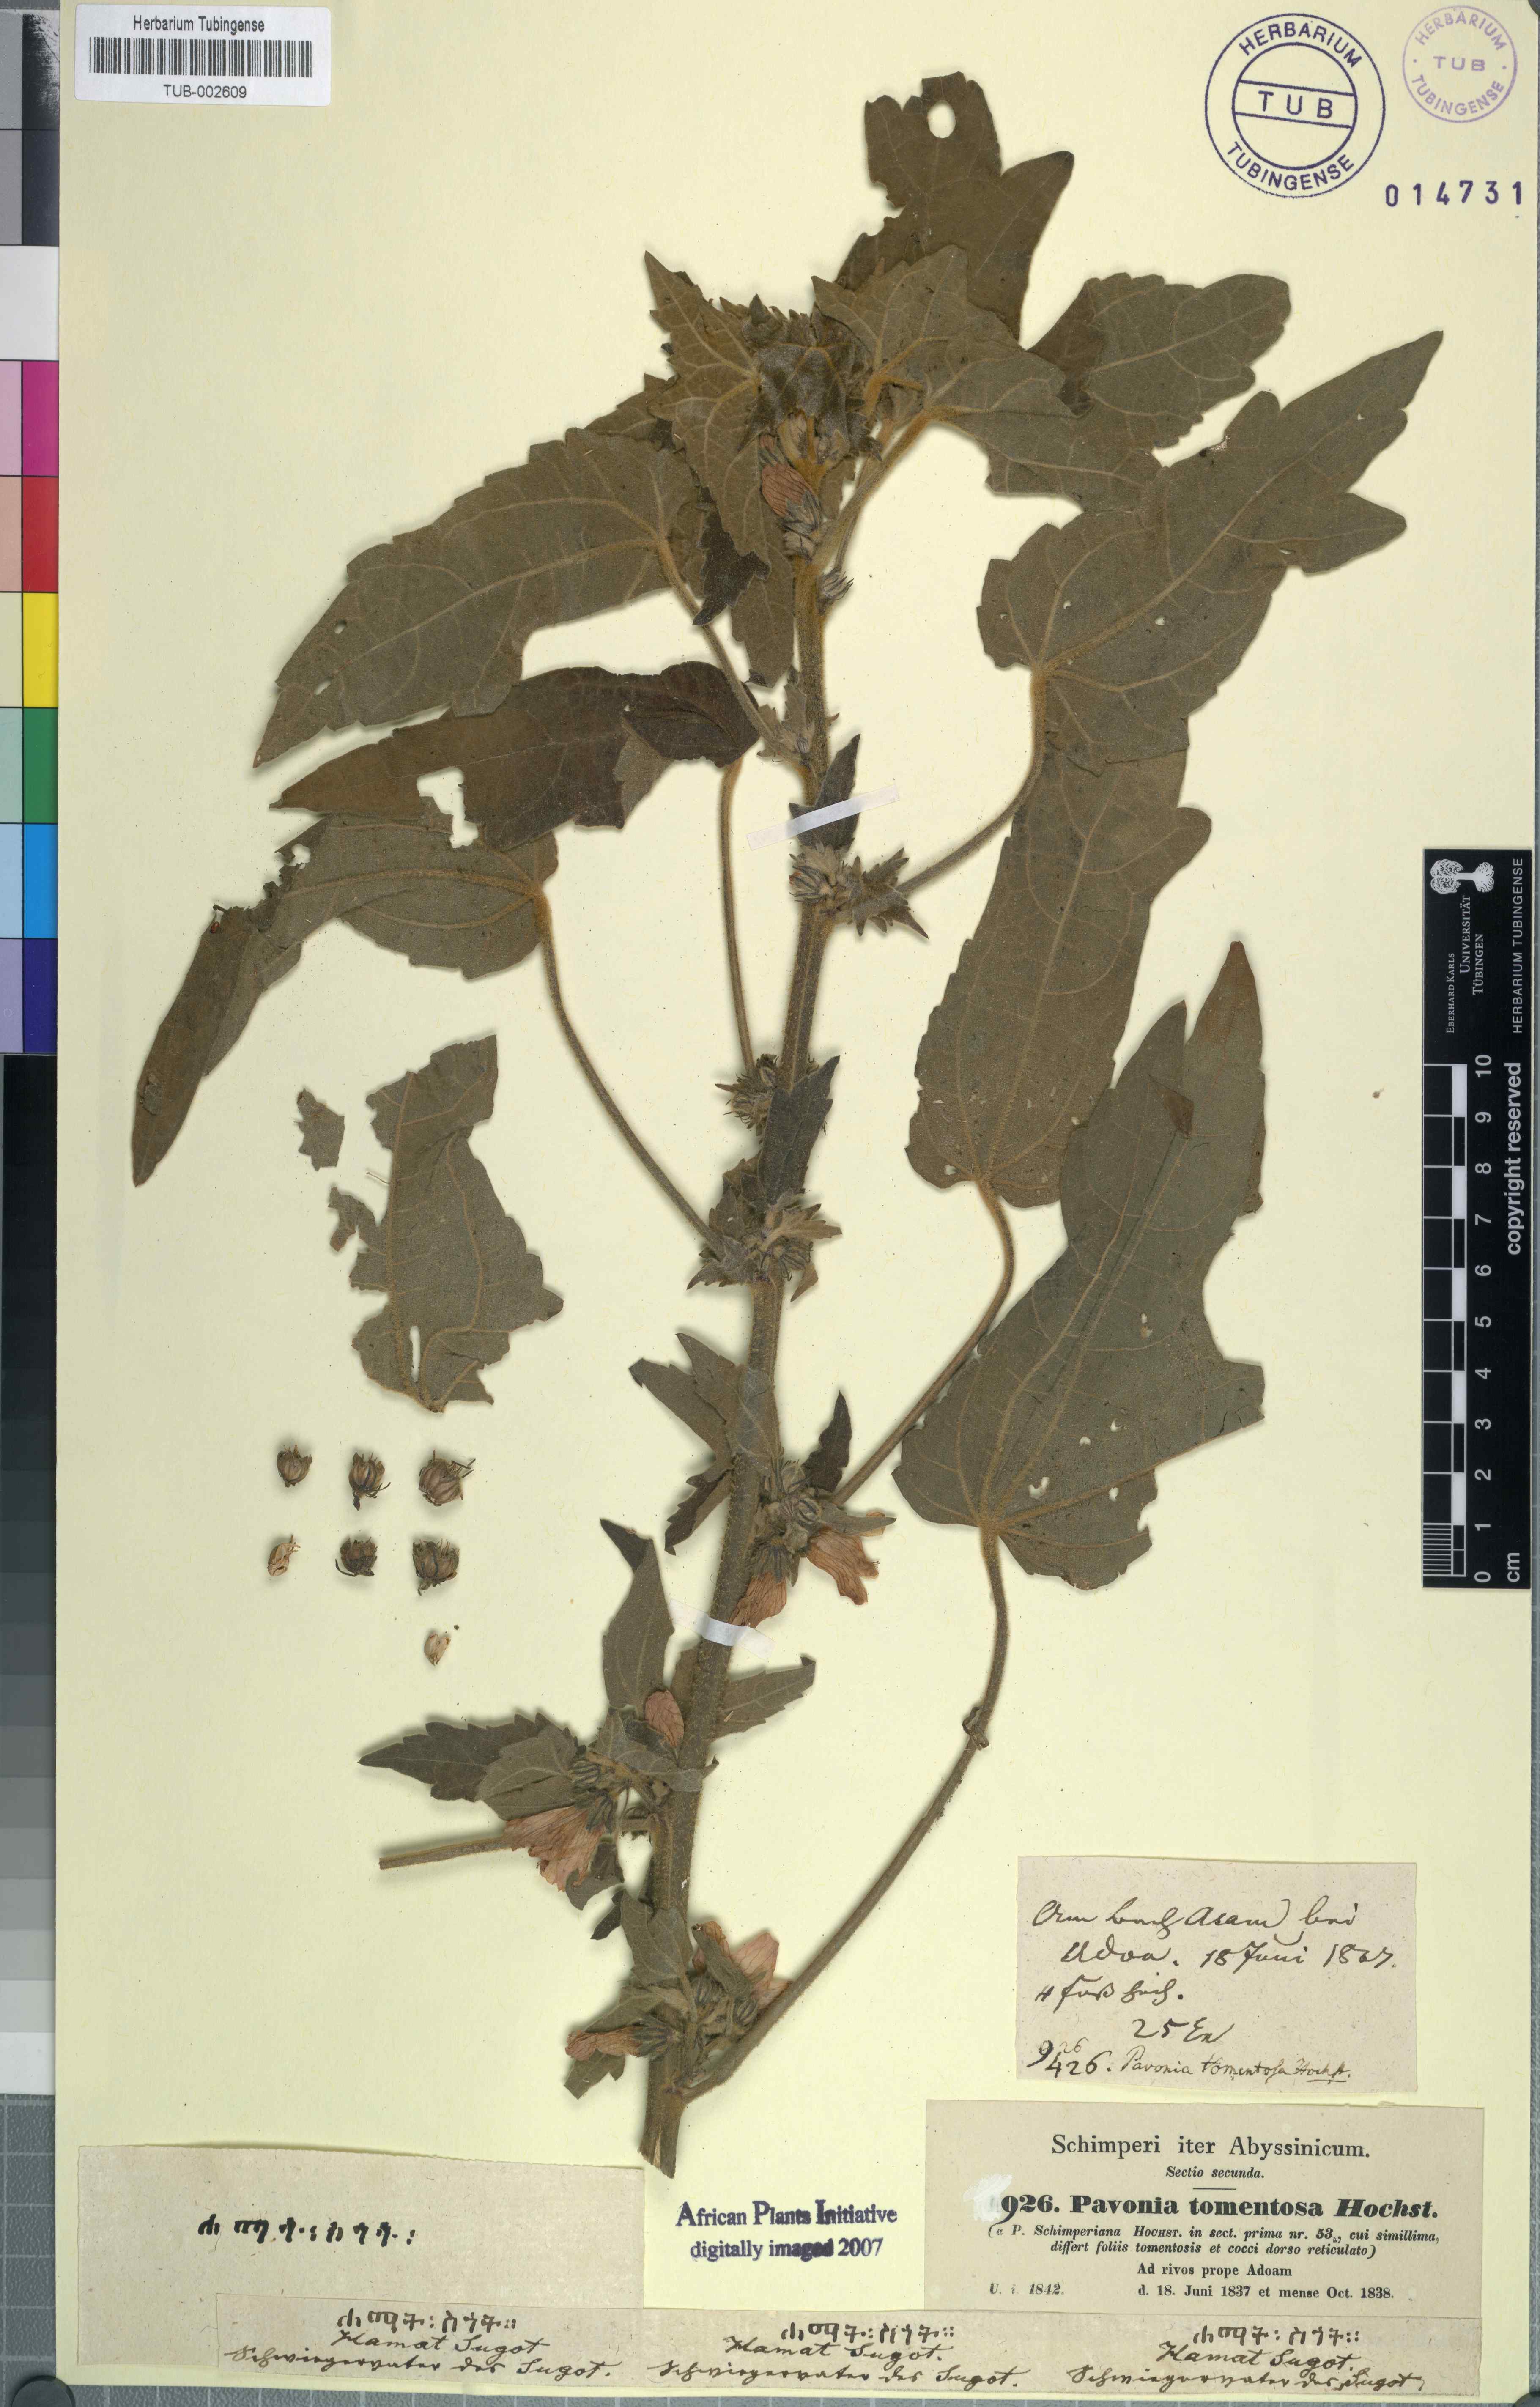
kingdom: Plantae
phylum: Tracheophyta
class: Magnoliopsida
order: Malvales
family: Malvaceae
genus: Pavonia
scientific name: Pavonia schimperiana
